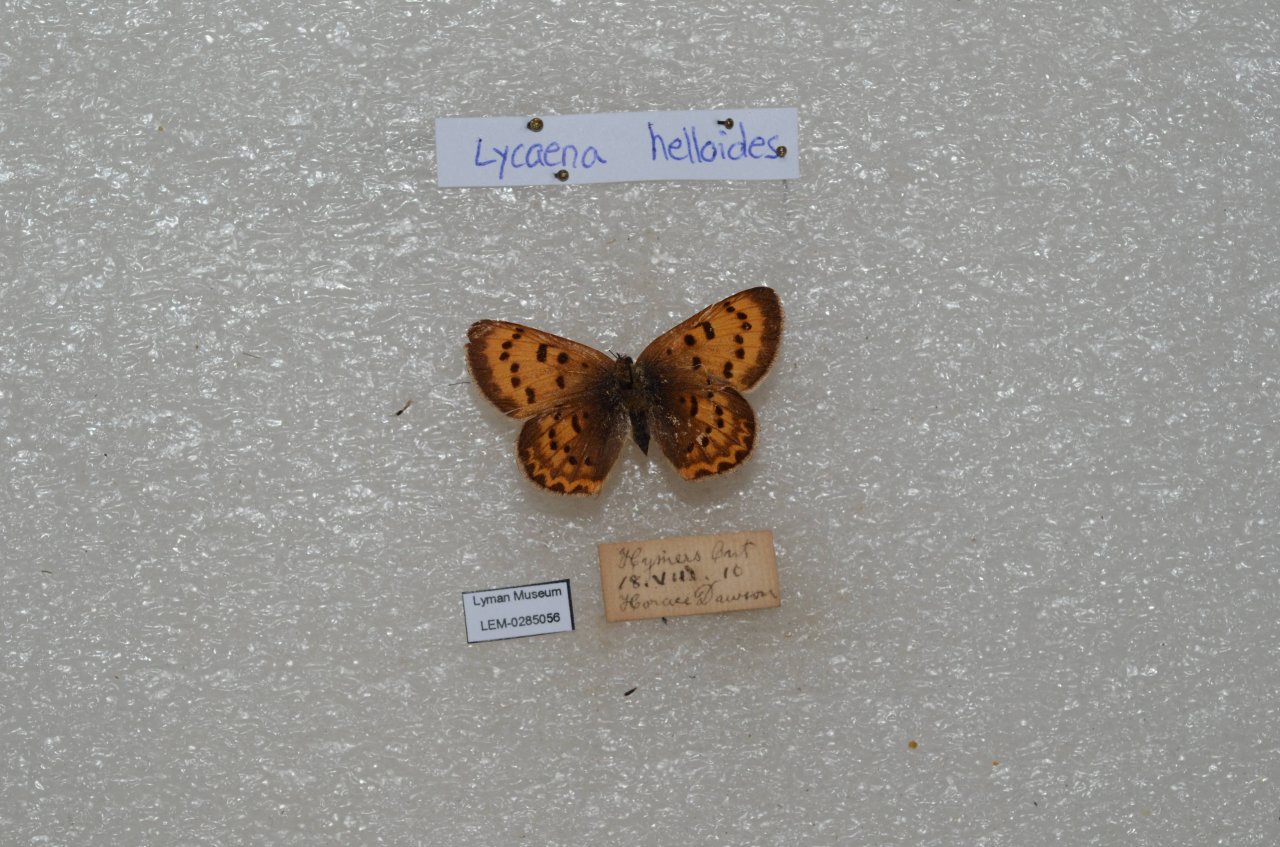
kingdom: Animalia
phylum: Arthropoda
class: Insecta
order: Lepidoptera
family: Sesiidae
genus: Sesia
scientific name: Sesia Lycaena hyllus
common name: Bronze Copper
